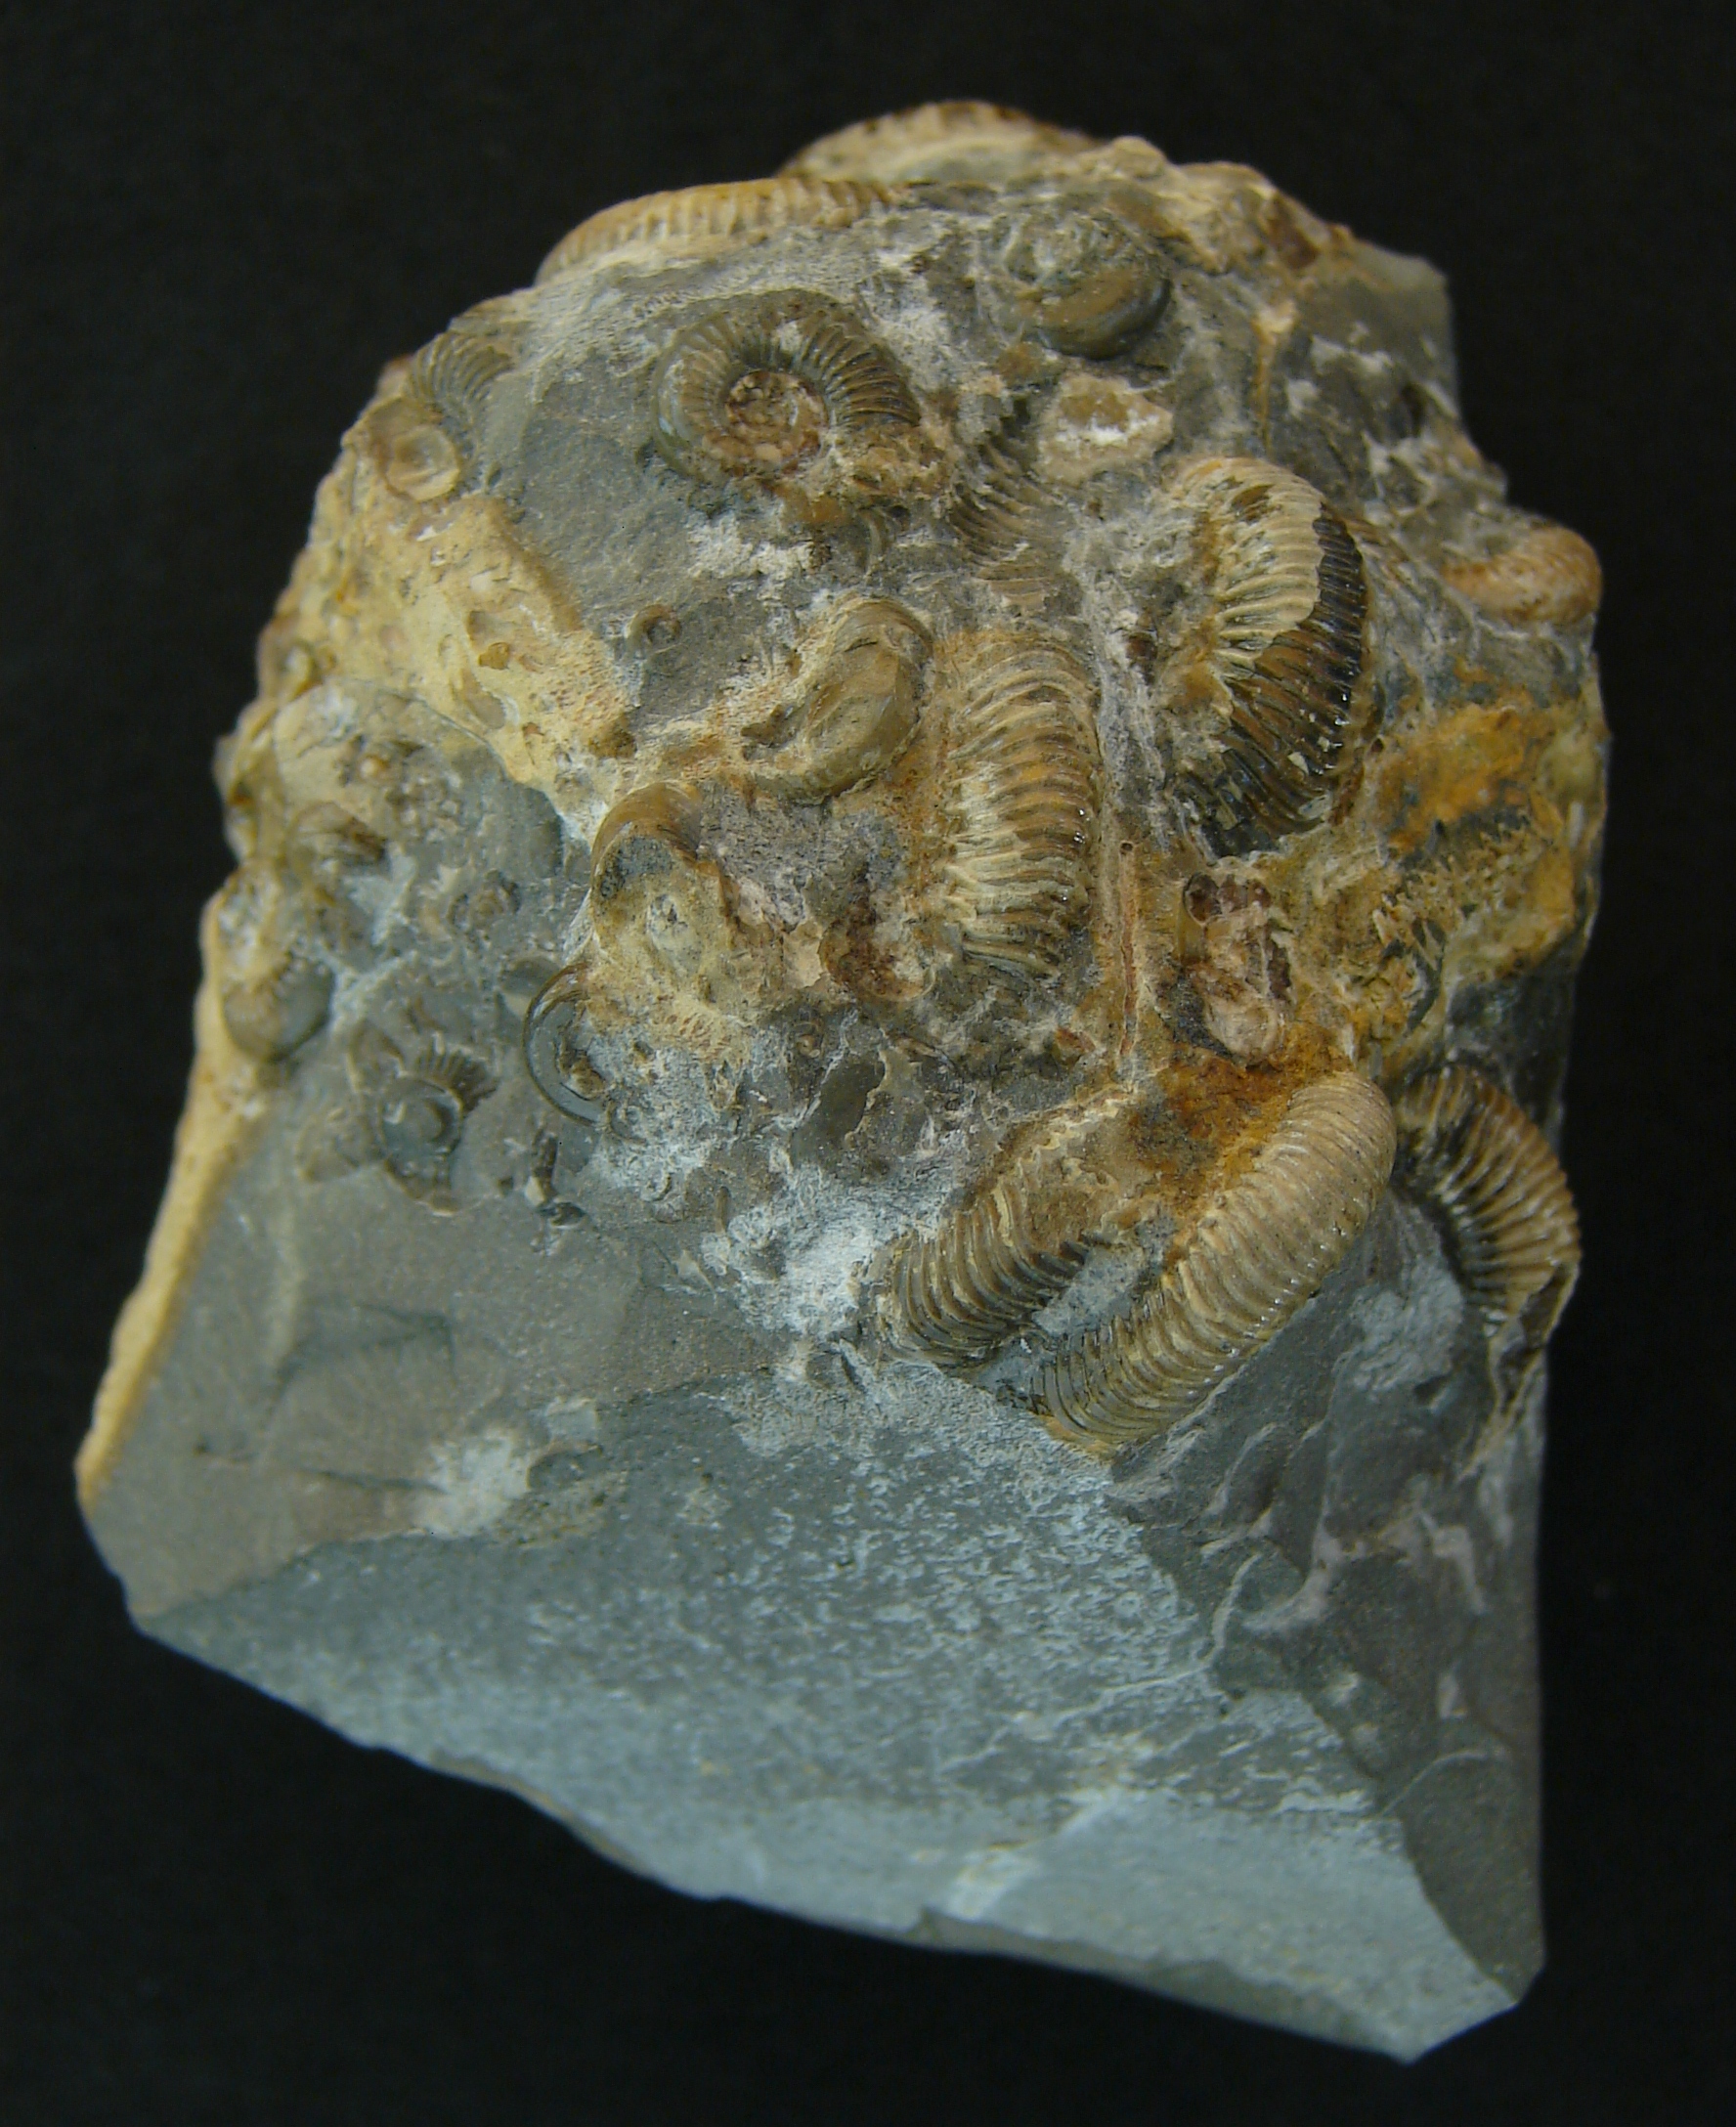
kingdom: Animalia
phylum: Mollusca
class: Cephalopoda
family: Dactylioceratidae
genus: Dactylioceras
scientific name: Dactylioceras
